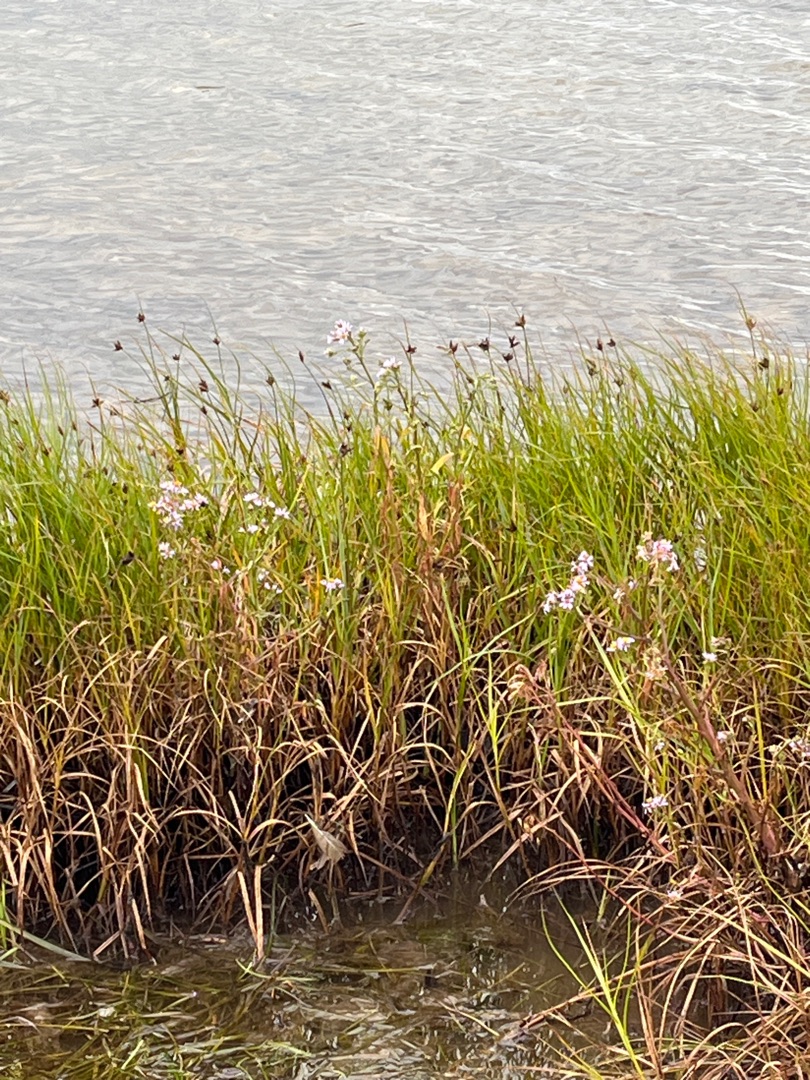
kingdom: Plantae
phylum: Tracheophyta
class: Liliopsida
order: Poales
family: Cyperaceae
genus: Bolboschoenus
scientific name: Bolboschoenus maritimus
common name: Strand-kogleaks
